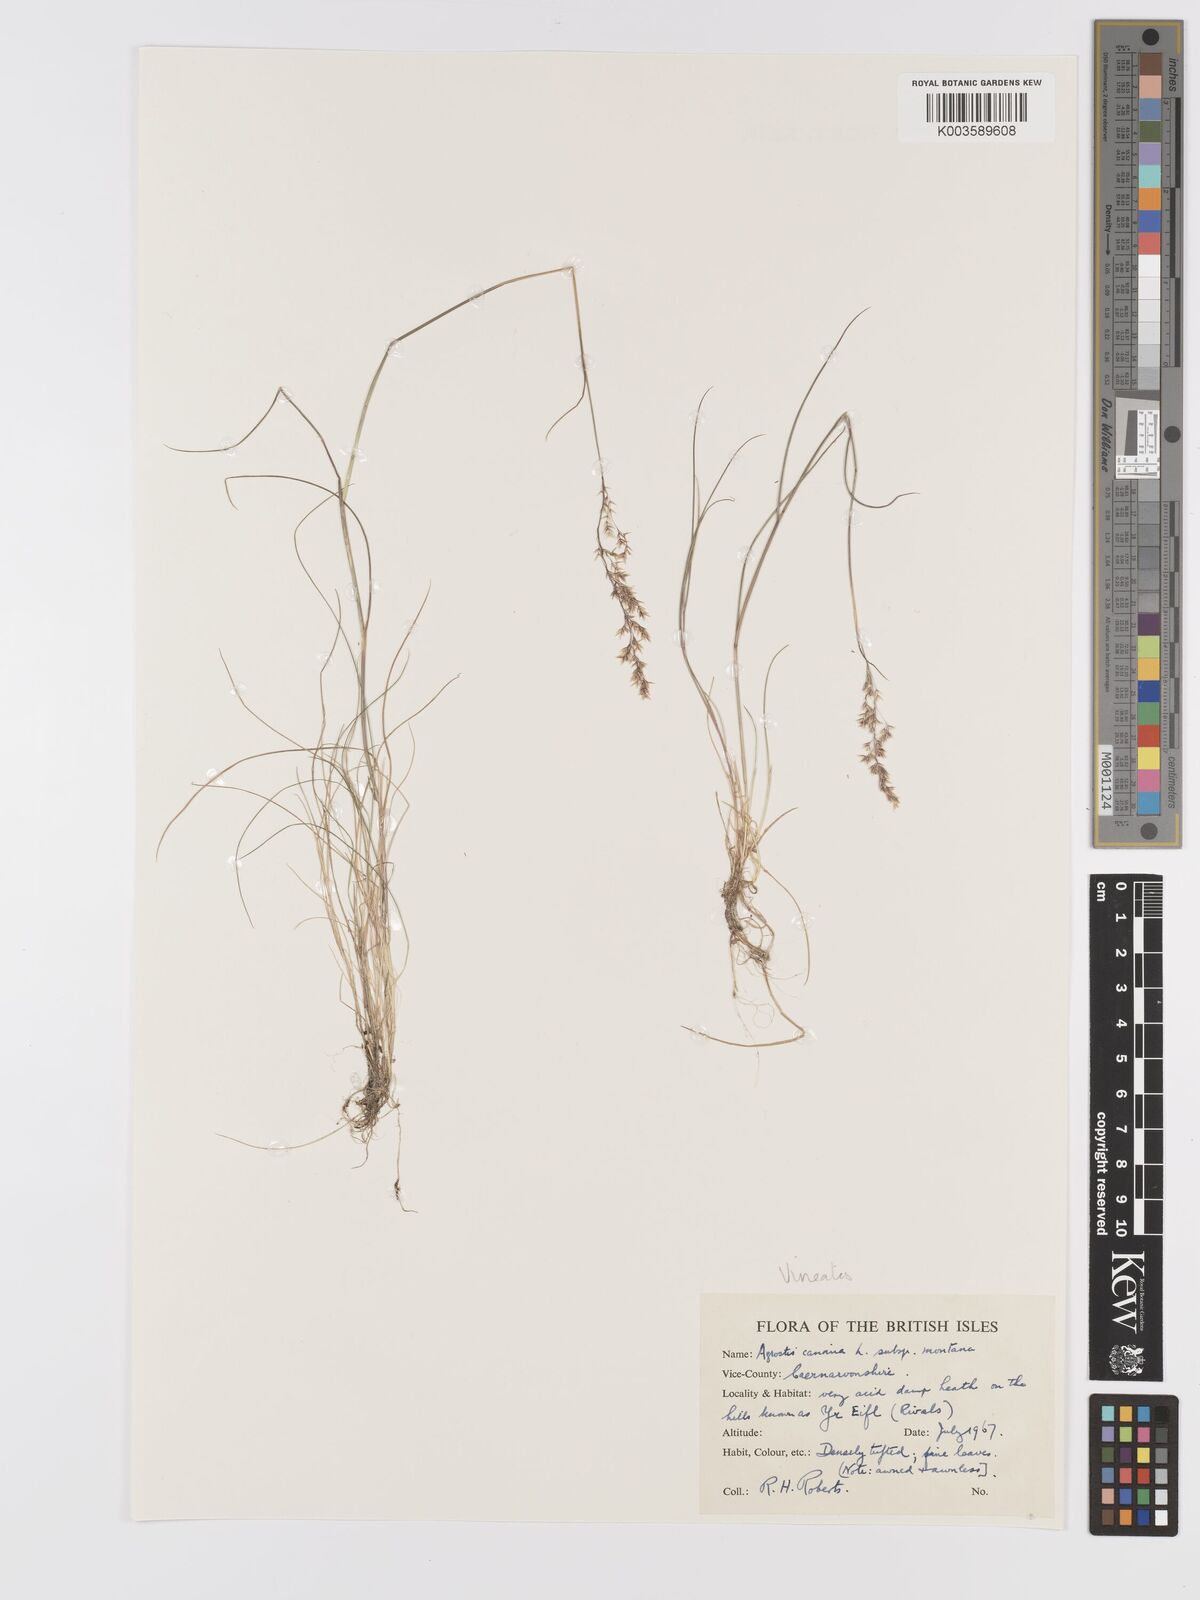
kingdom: Plantae
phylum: Tracheophyta
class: Liliopsida
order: Poales
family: Poaceae
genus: Agrostis
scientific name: Agrostis
